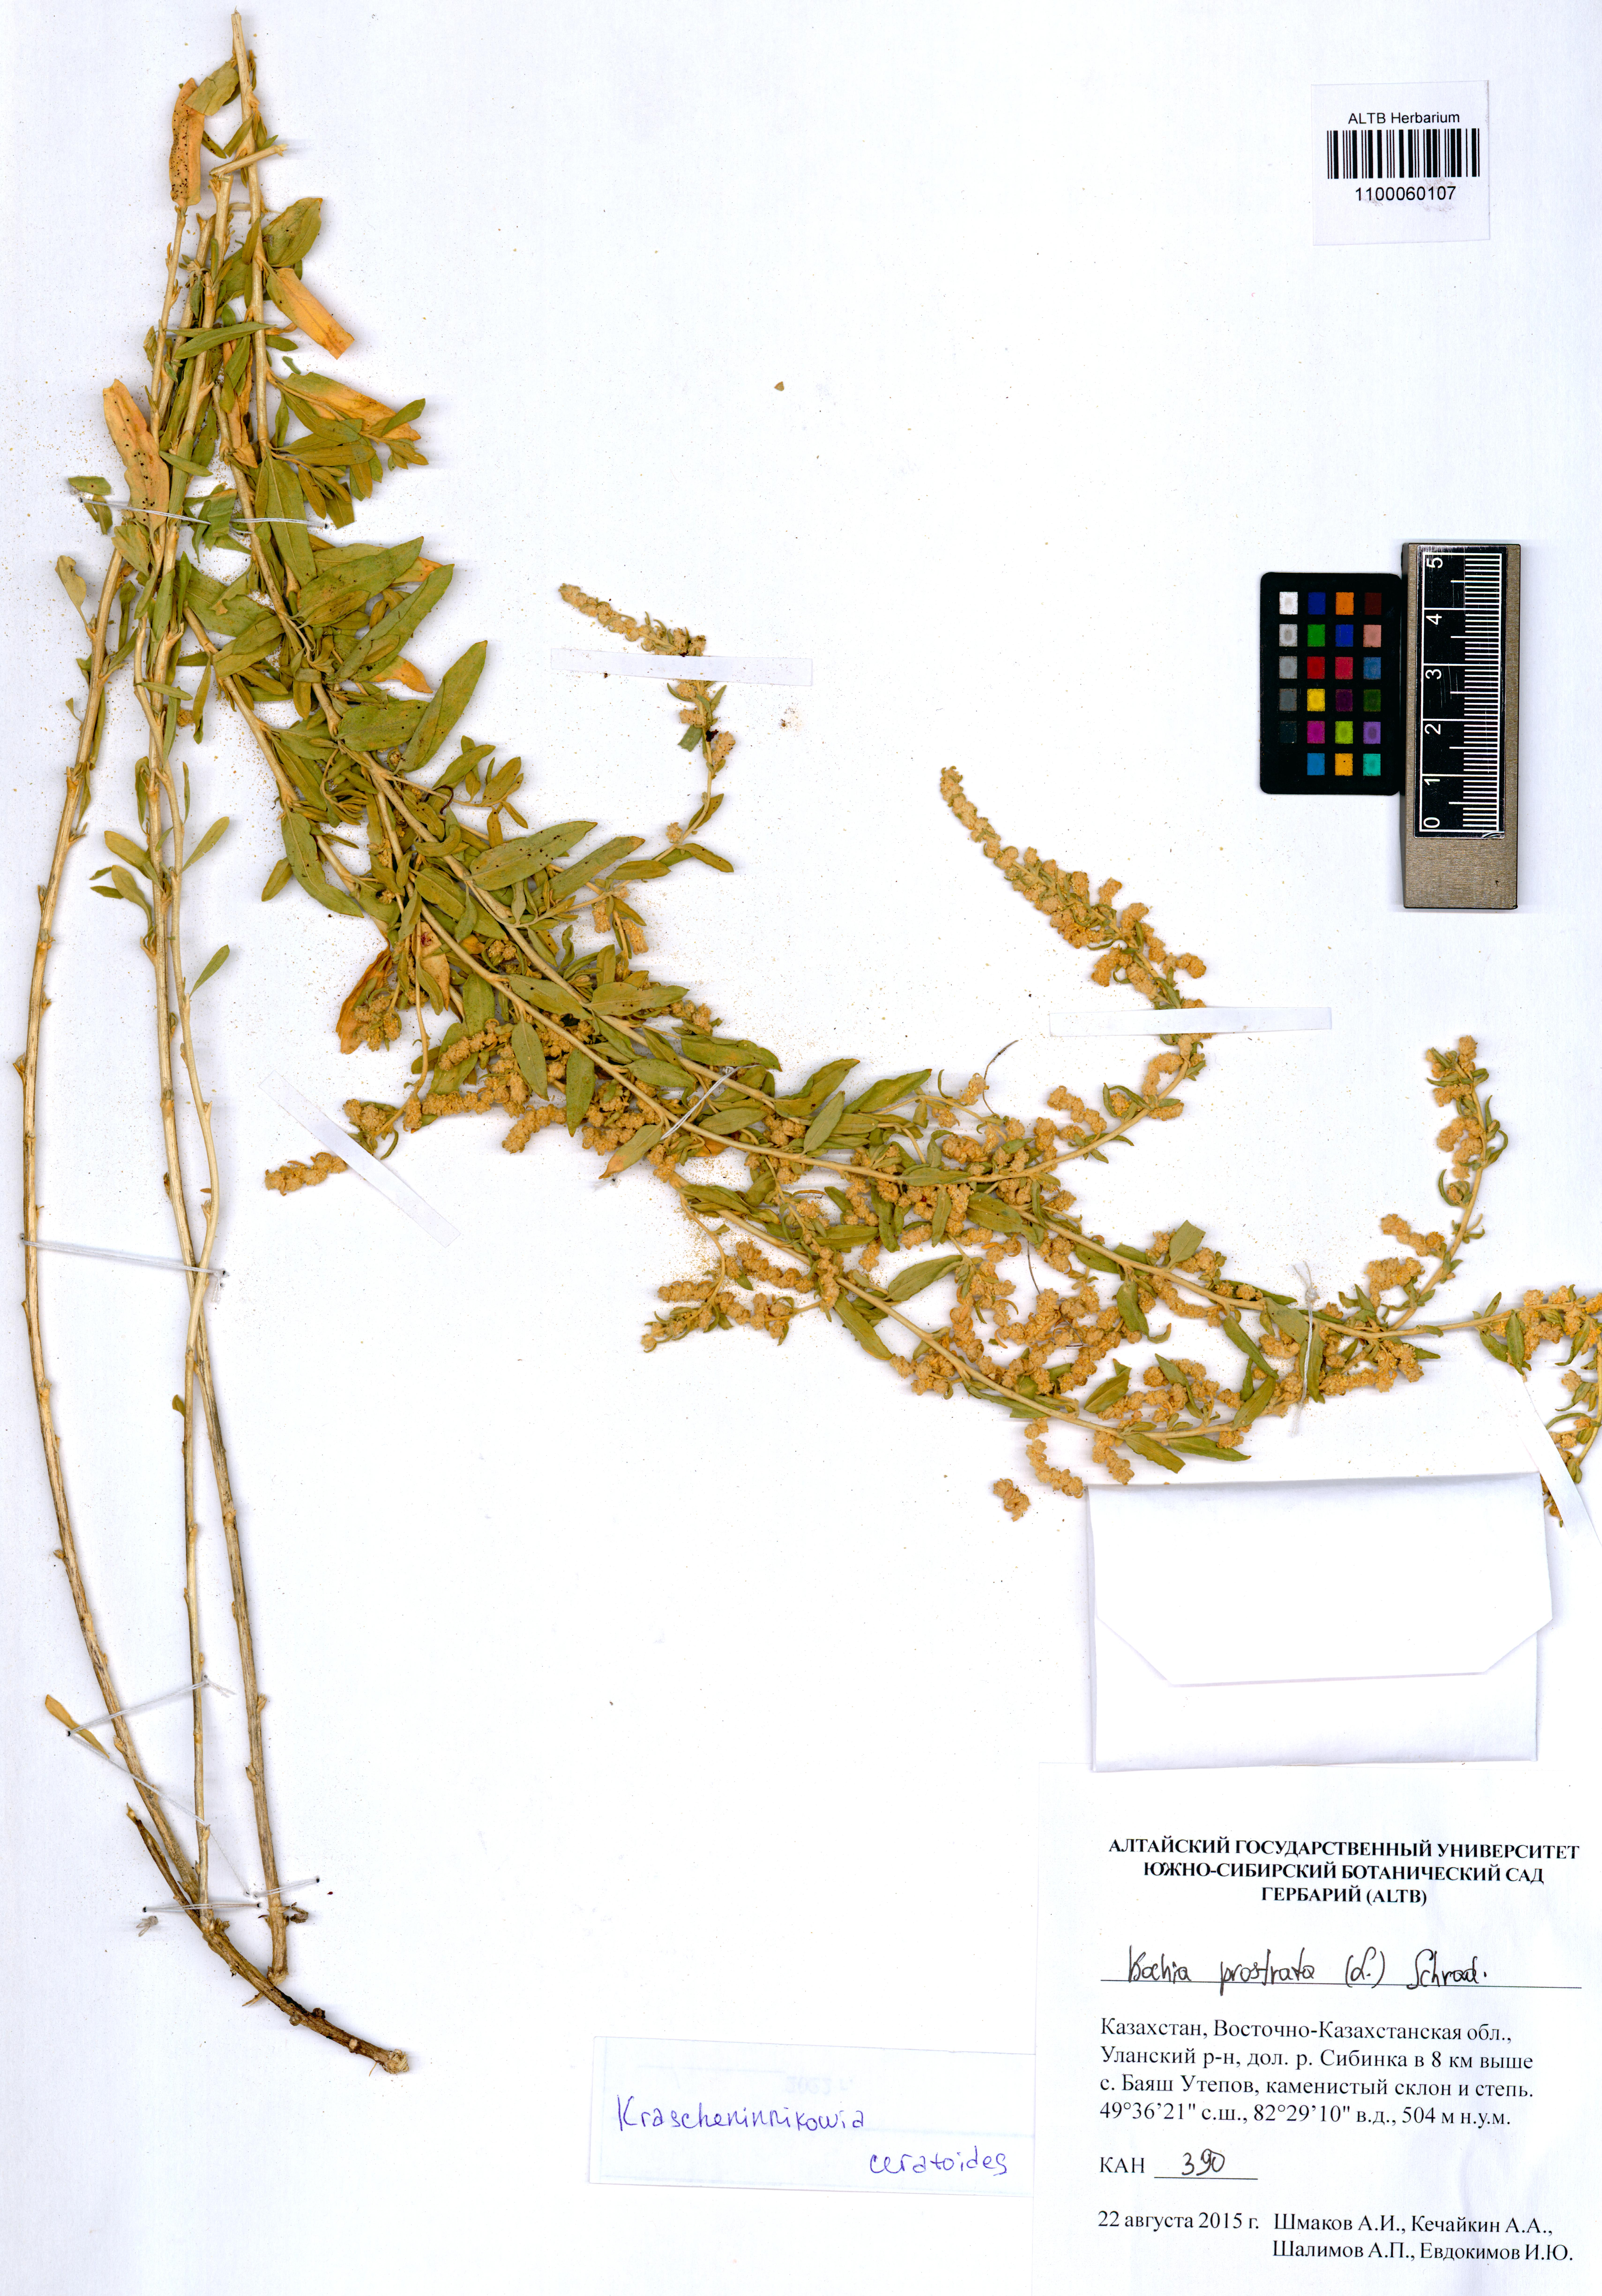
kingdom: Plantae
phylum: Tracheophyta
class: Magnoliopsida
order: Caryophyllales
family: Amaranthaceae
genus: Krascheninnikovia
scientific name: Krascheninnikovia ceratoides
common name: Pamirian winterfat
